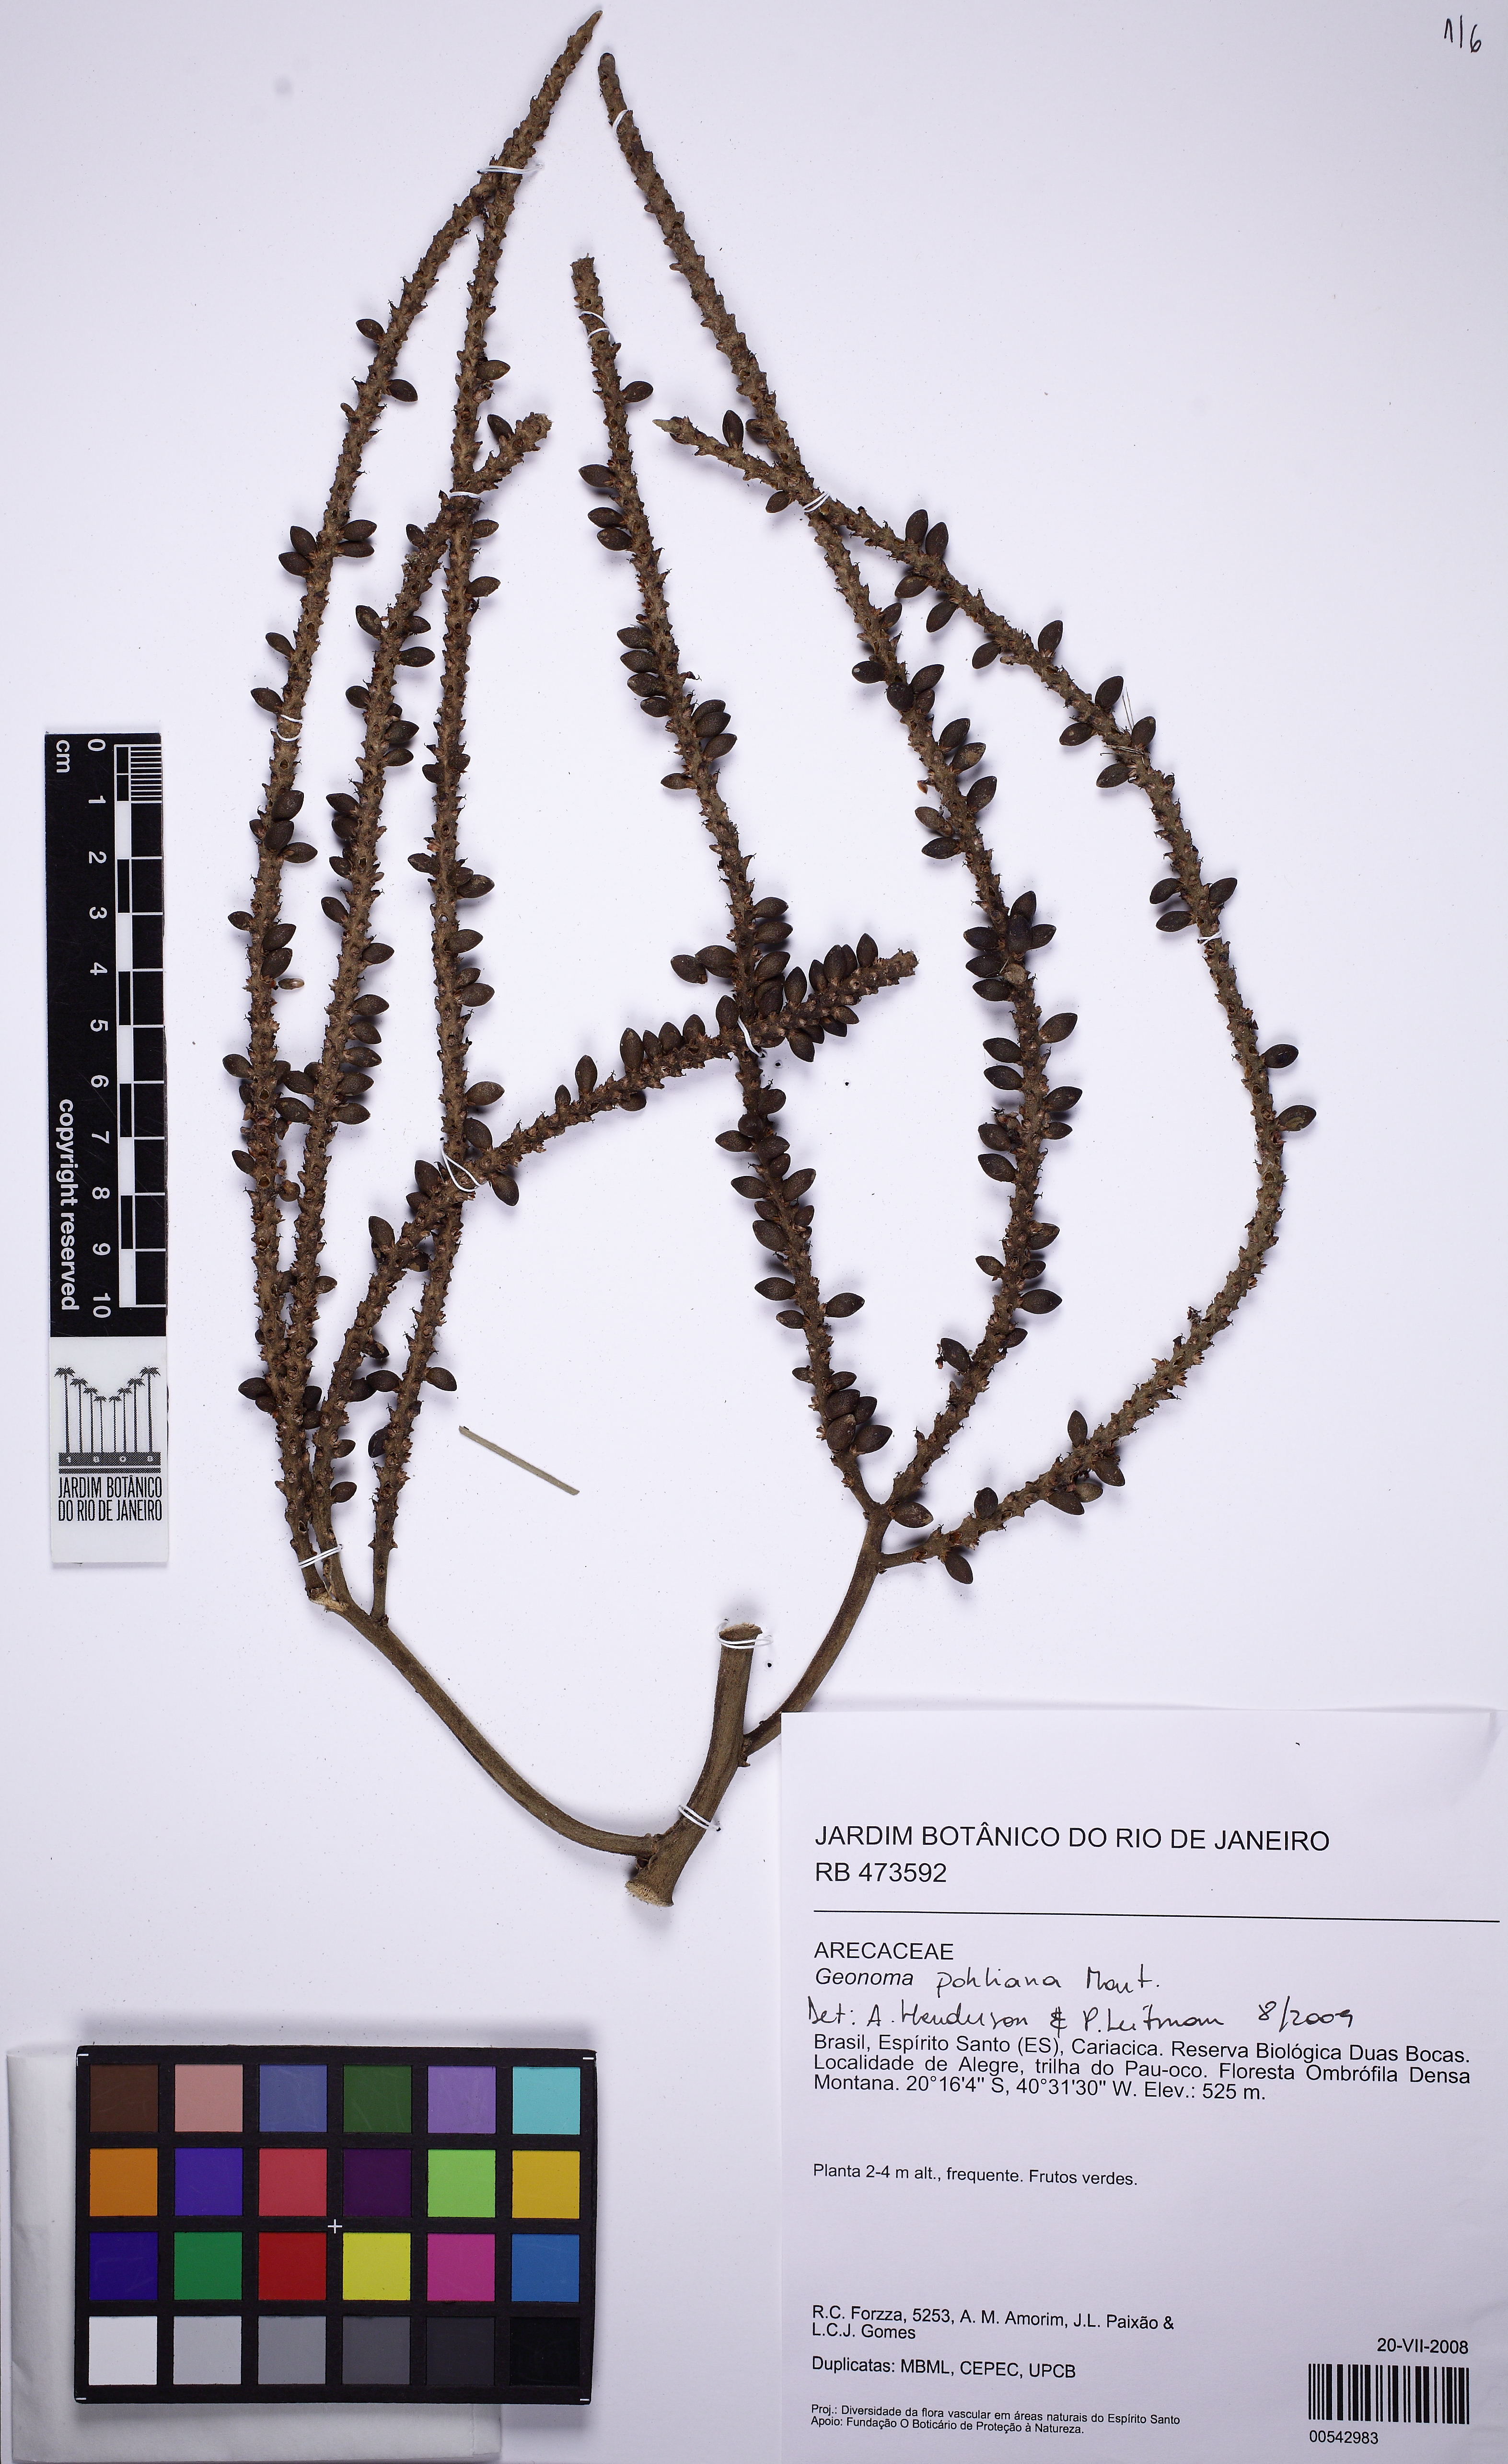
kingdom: Plantae
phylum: Tracheophyta
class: Liliopsida
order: Arecales
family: Arecaceae
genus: Geonoma
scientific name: Geonoma pohliana
